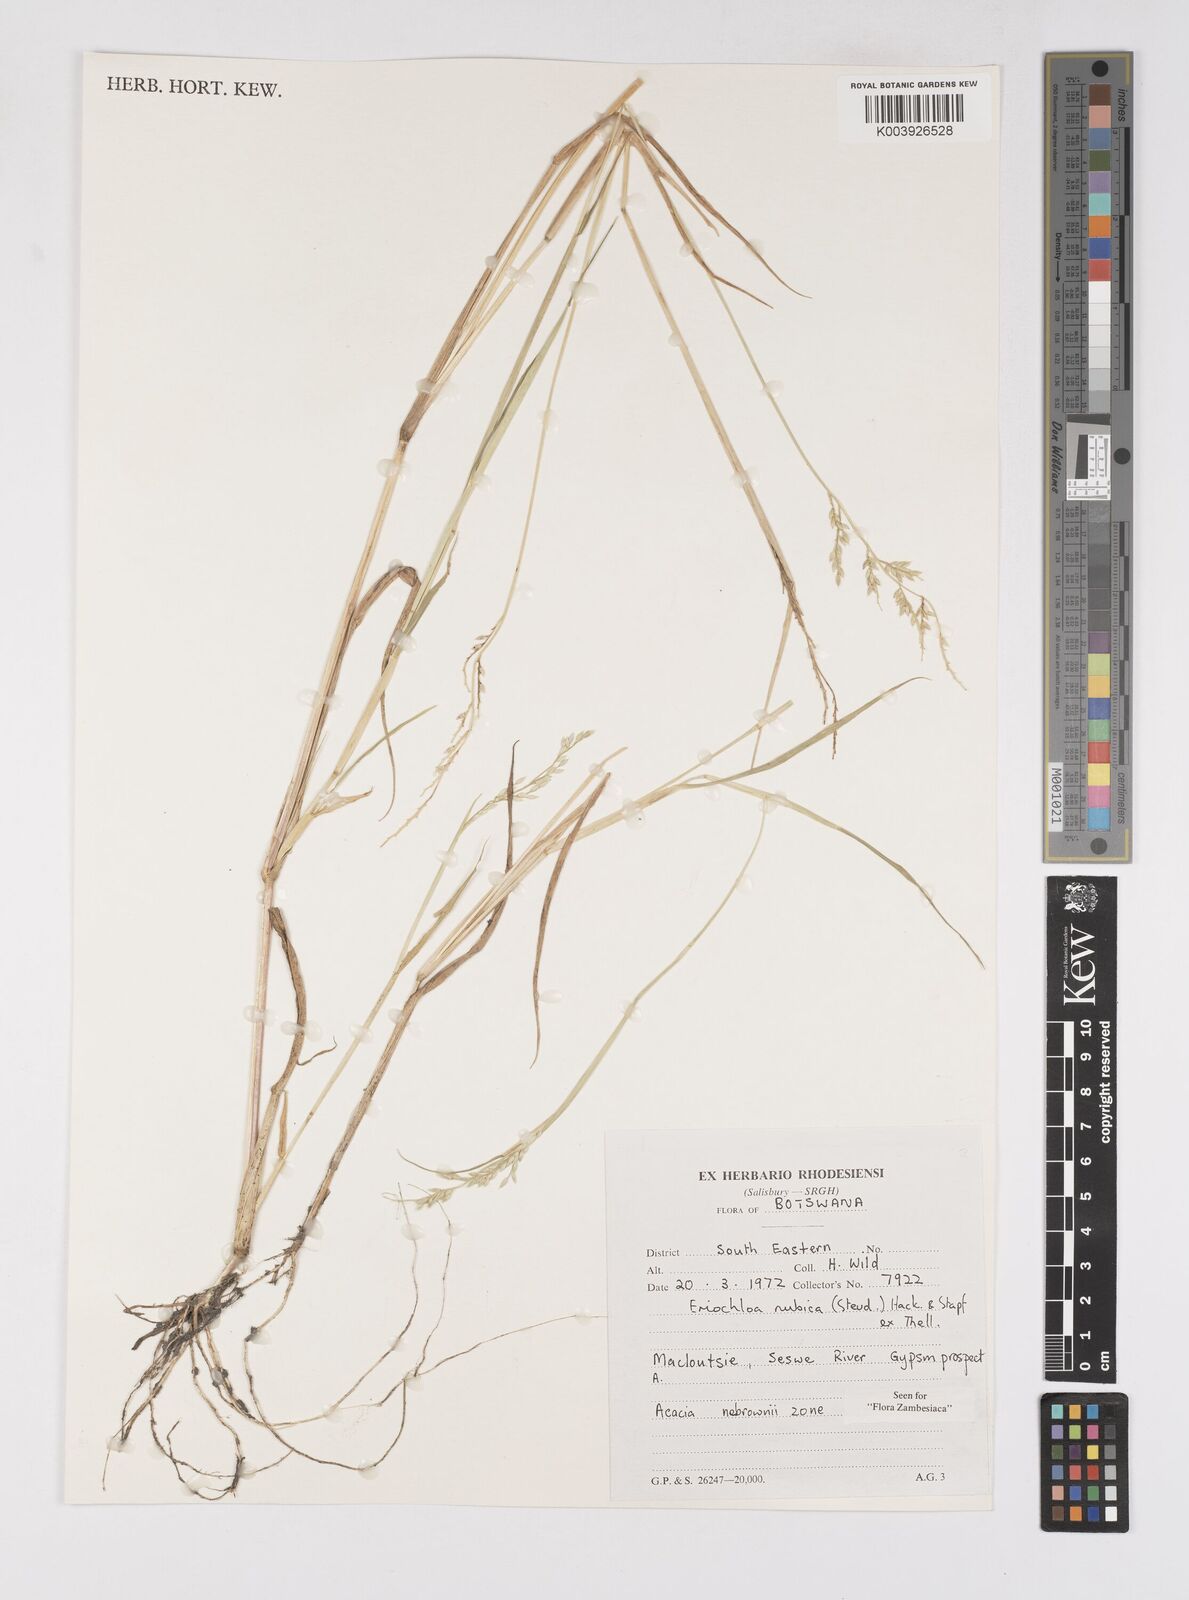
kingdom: Plantae
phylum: Tracheophyta
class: Liliopsida
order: Poales
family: Poaceae
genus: Eriochloa
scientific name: Eriochloa barbatus
